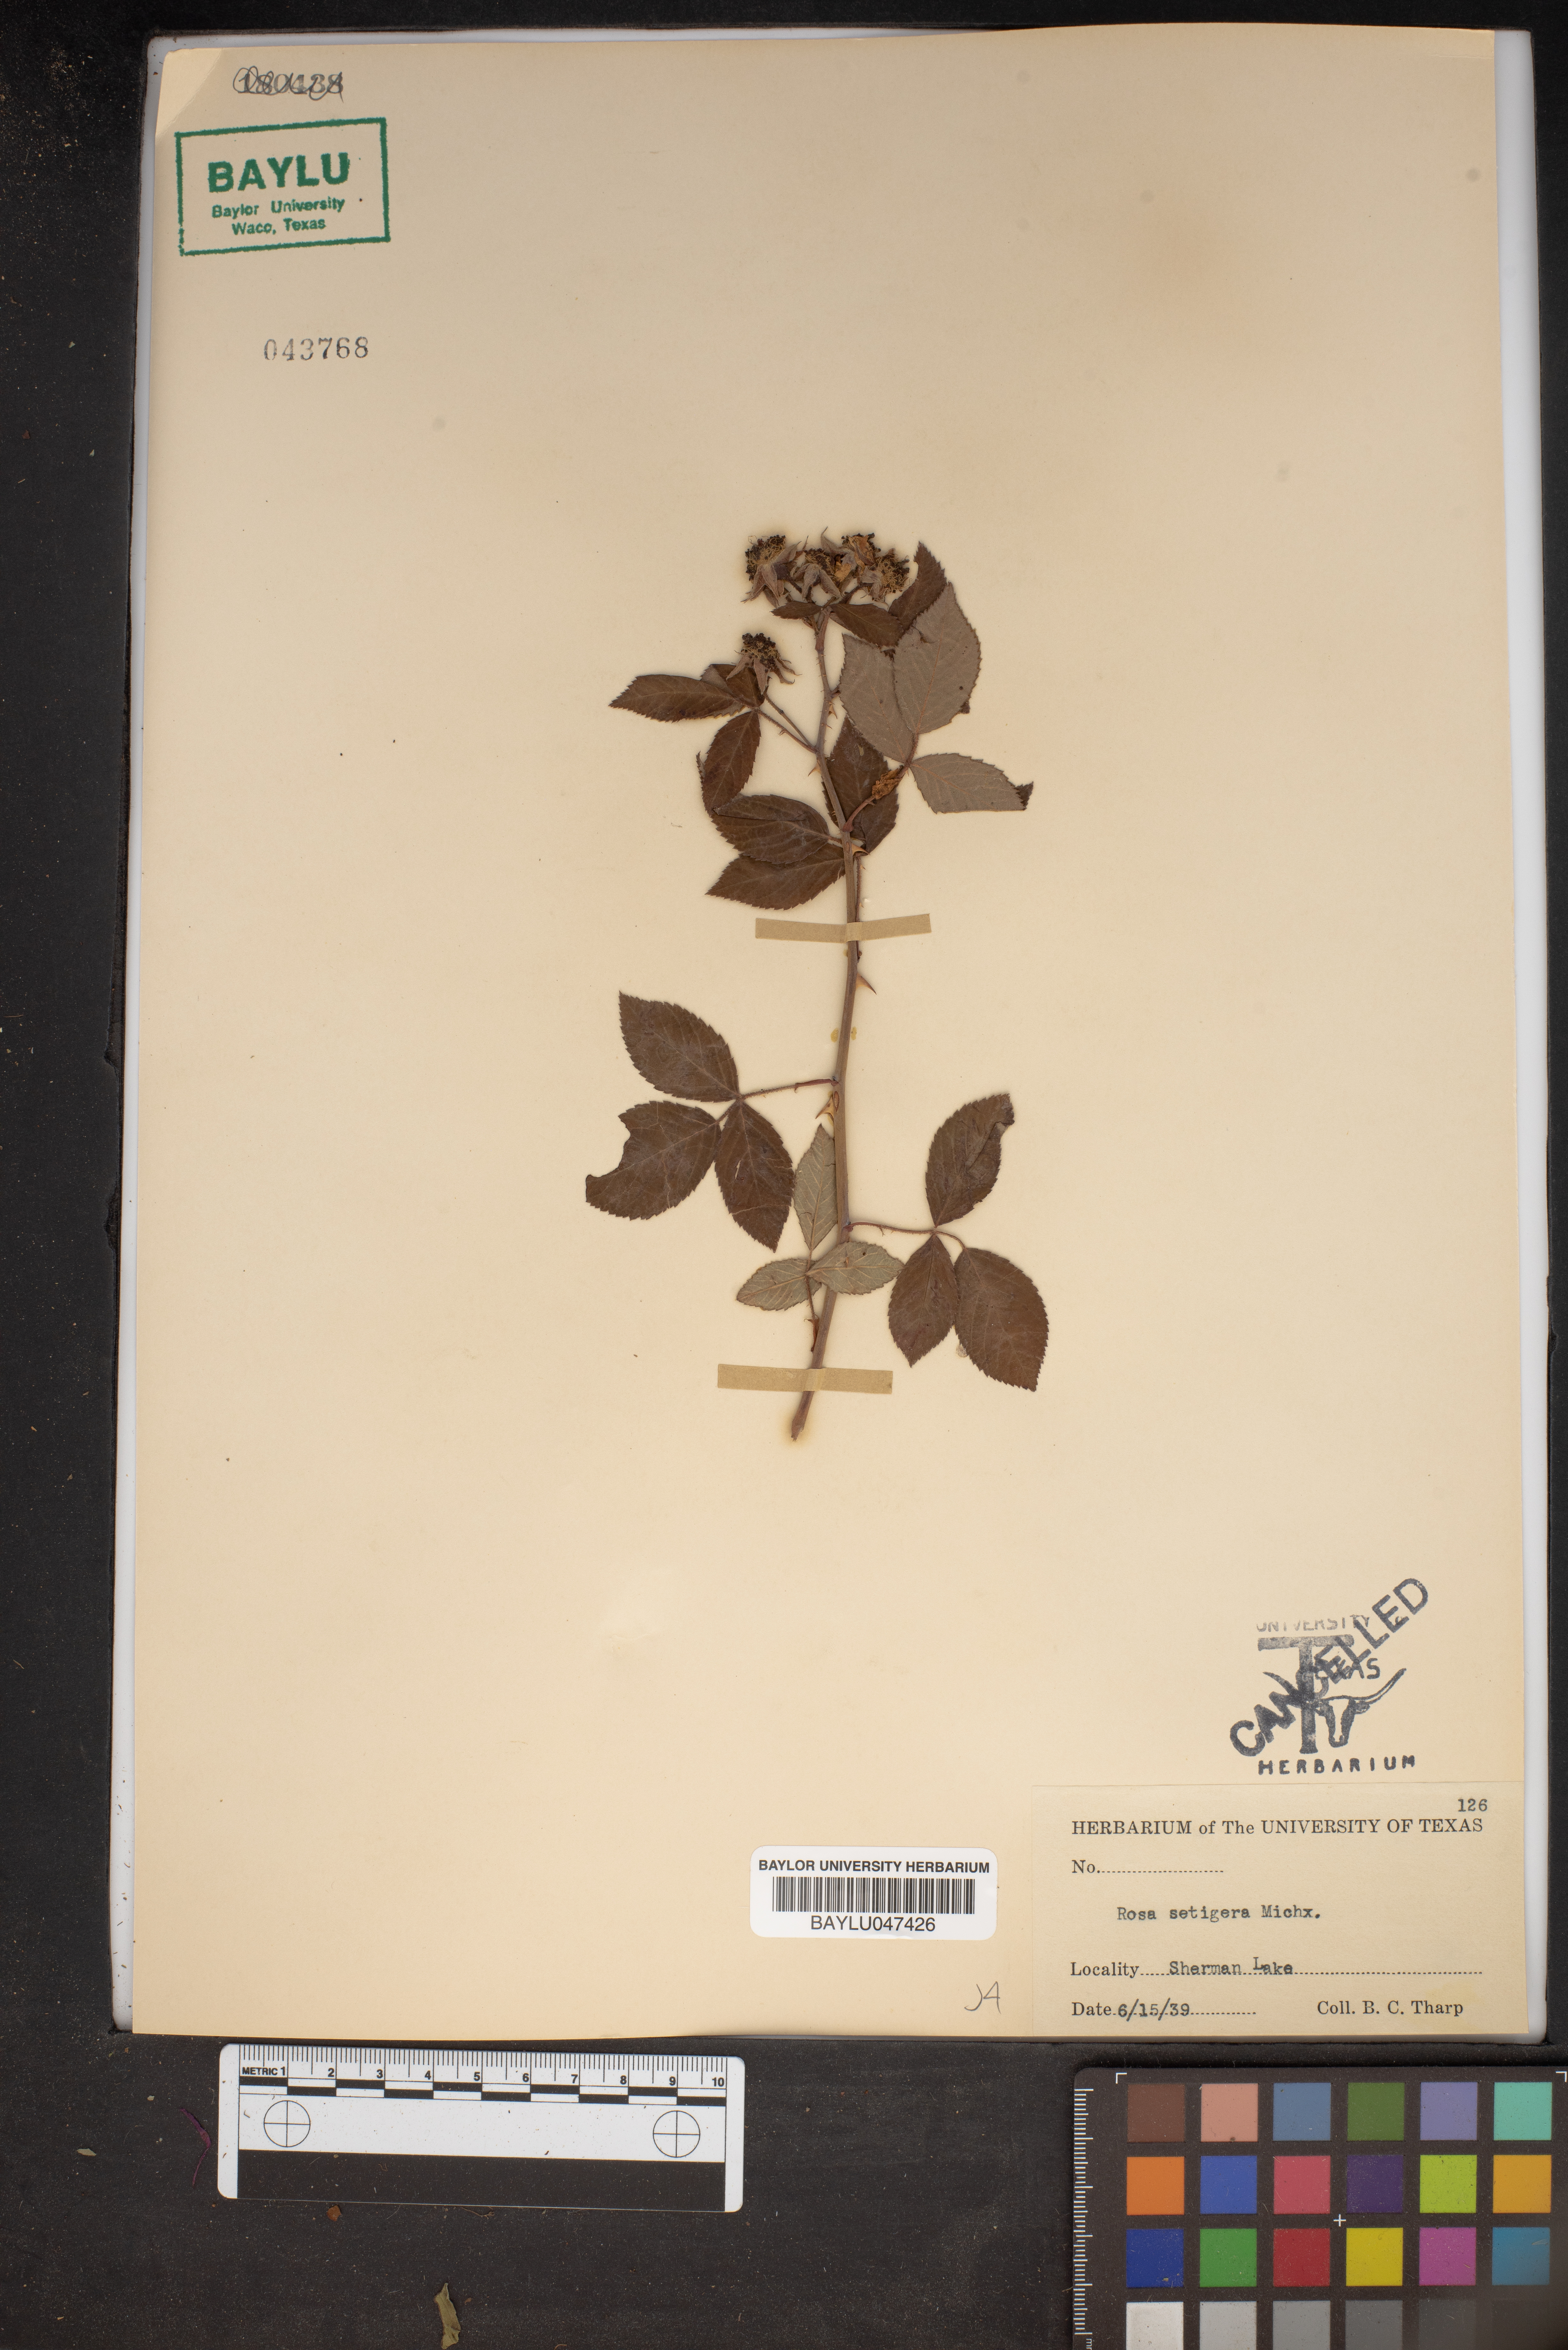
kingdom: Plantae
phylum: Tracheophyta
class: Magnoliopsida
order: Rosales
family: Rosaceae
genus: Rosa
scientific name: Rosa setigera
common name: Prairie rose
